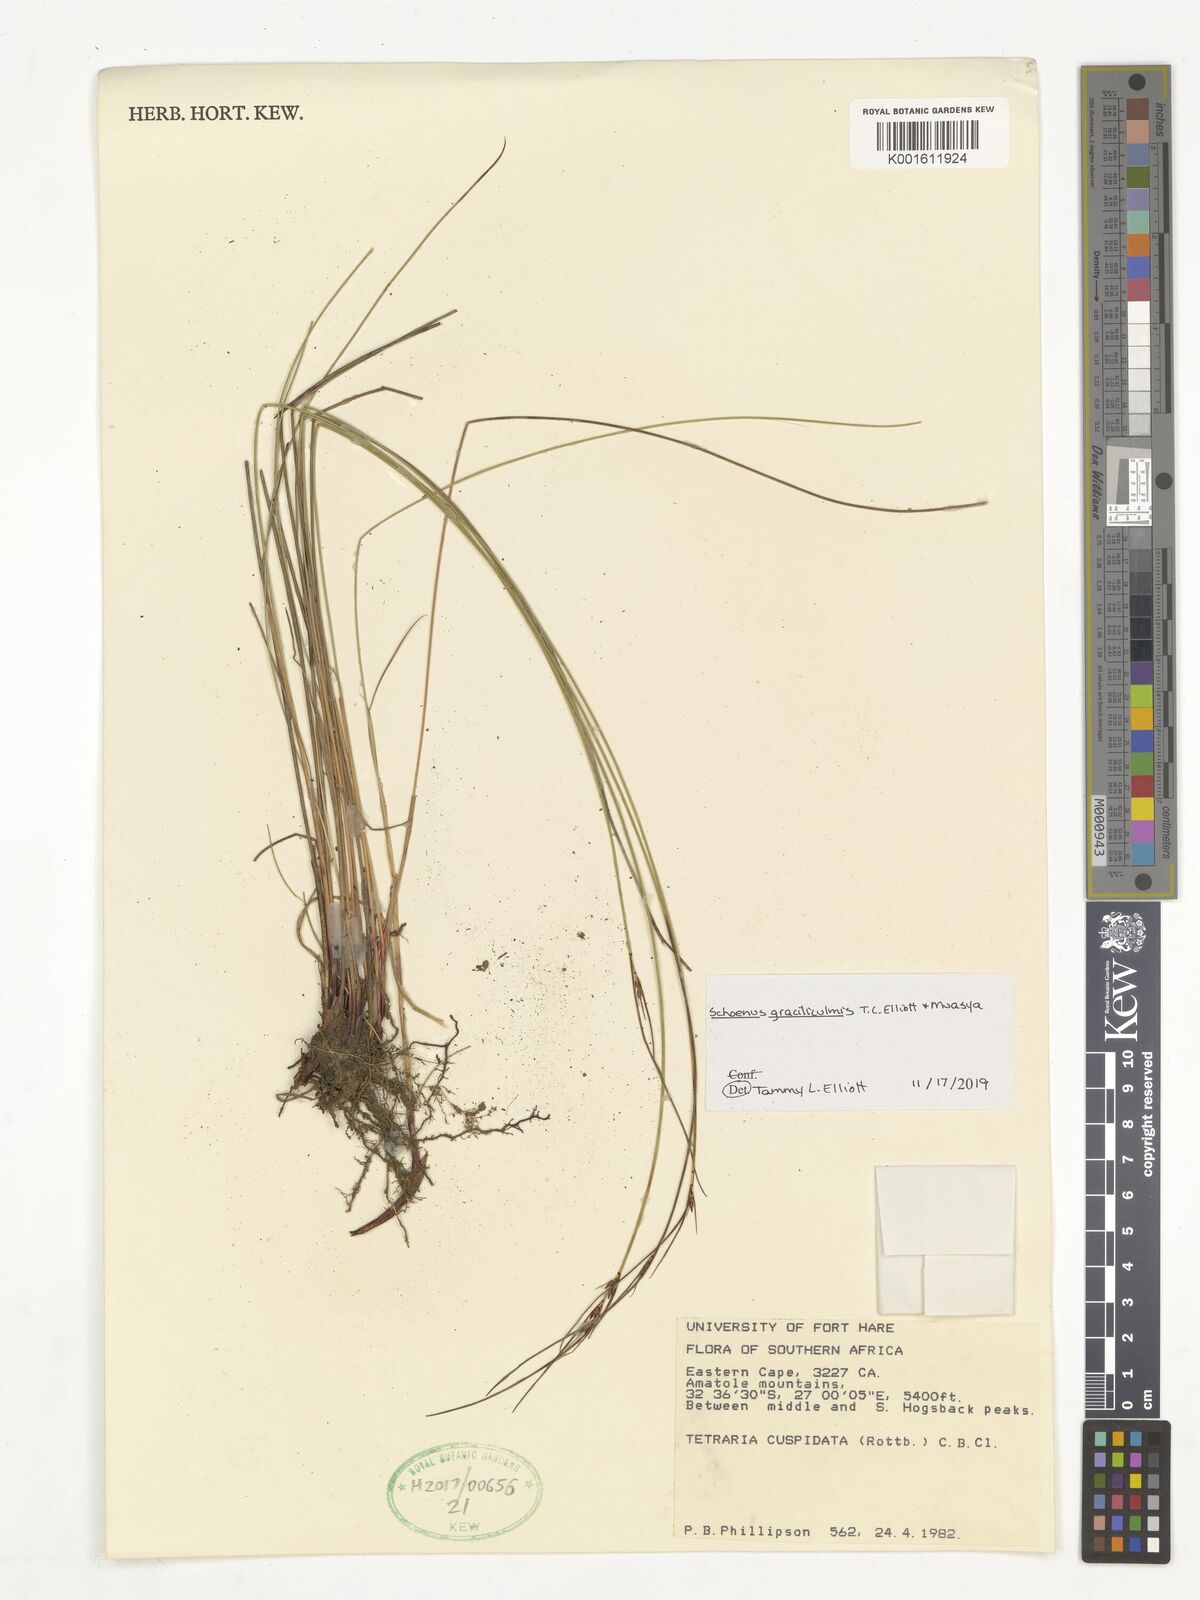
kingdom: Plantae
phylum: Tracheophyta
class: Liliopsida
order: Poales
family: Cyperaceae
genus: Schoenus
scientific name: Schoenus gracillimus
